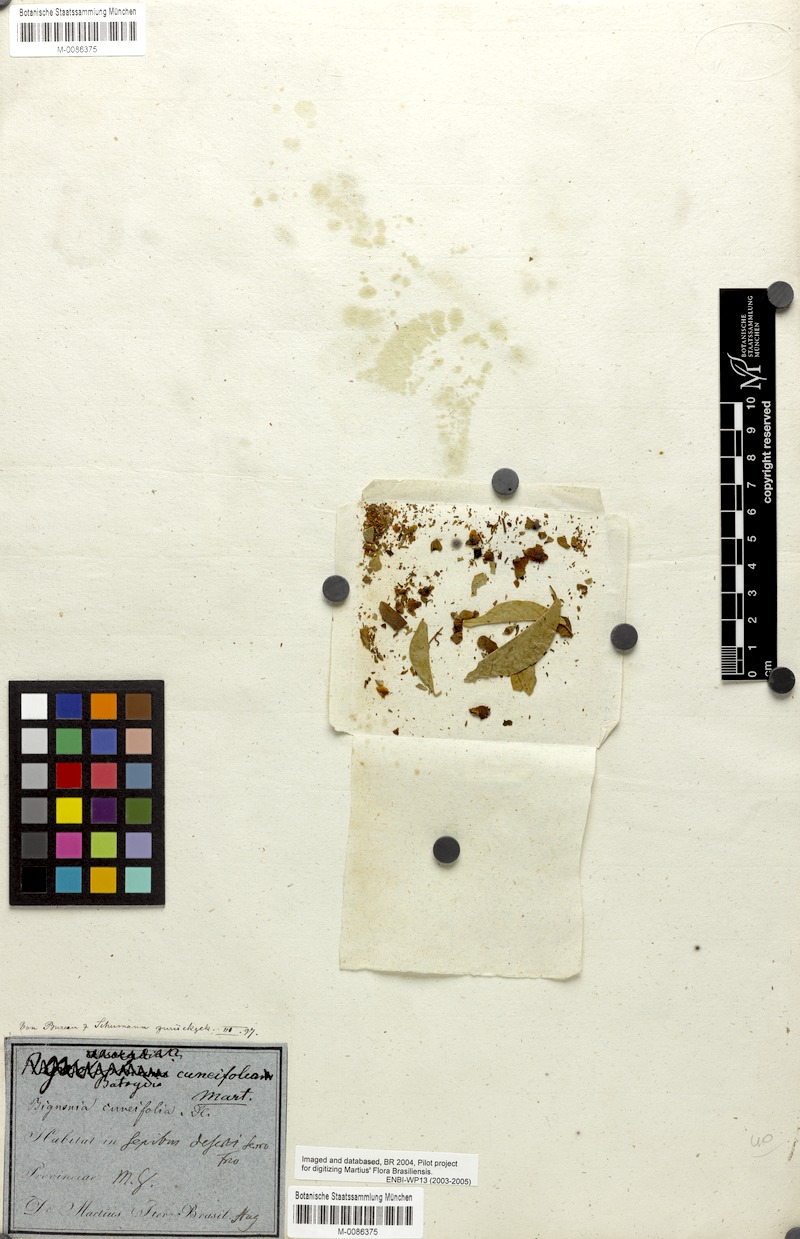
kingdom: Plantae
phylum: Tracheophyta
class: Magnoliopsida
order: Lamiales
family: Bignoniaceae
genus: Fridericia
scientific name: Fridericia cuneifolia
